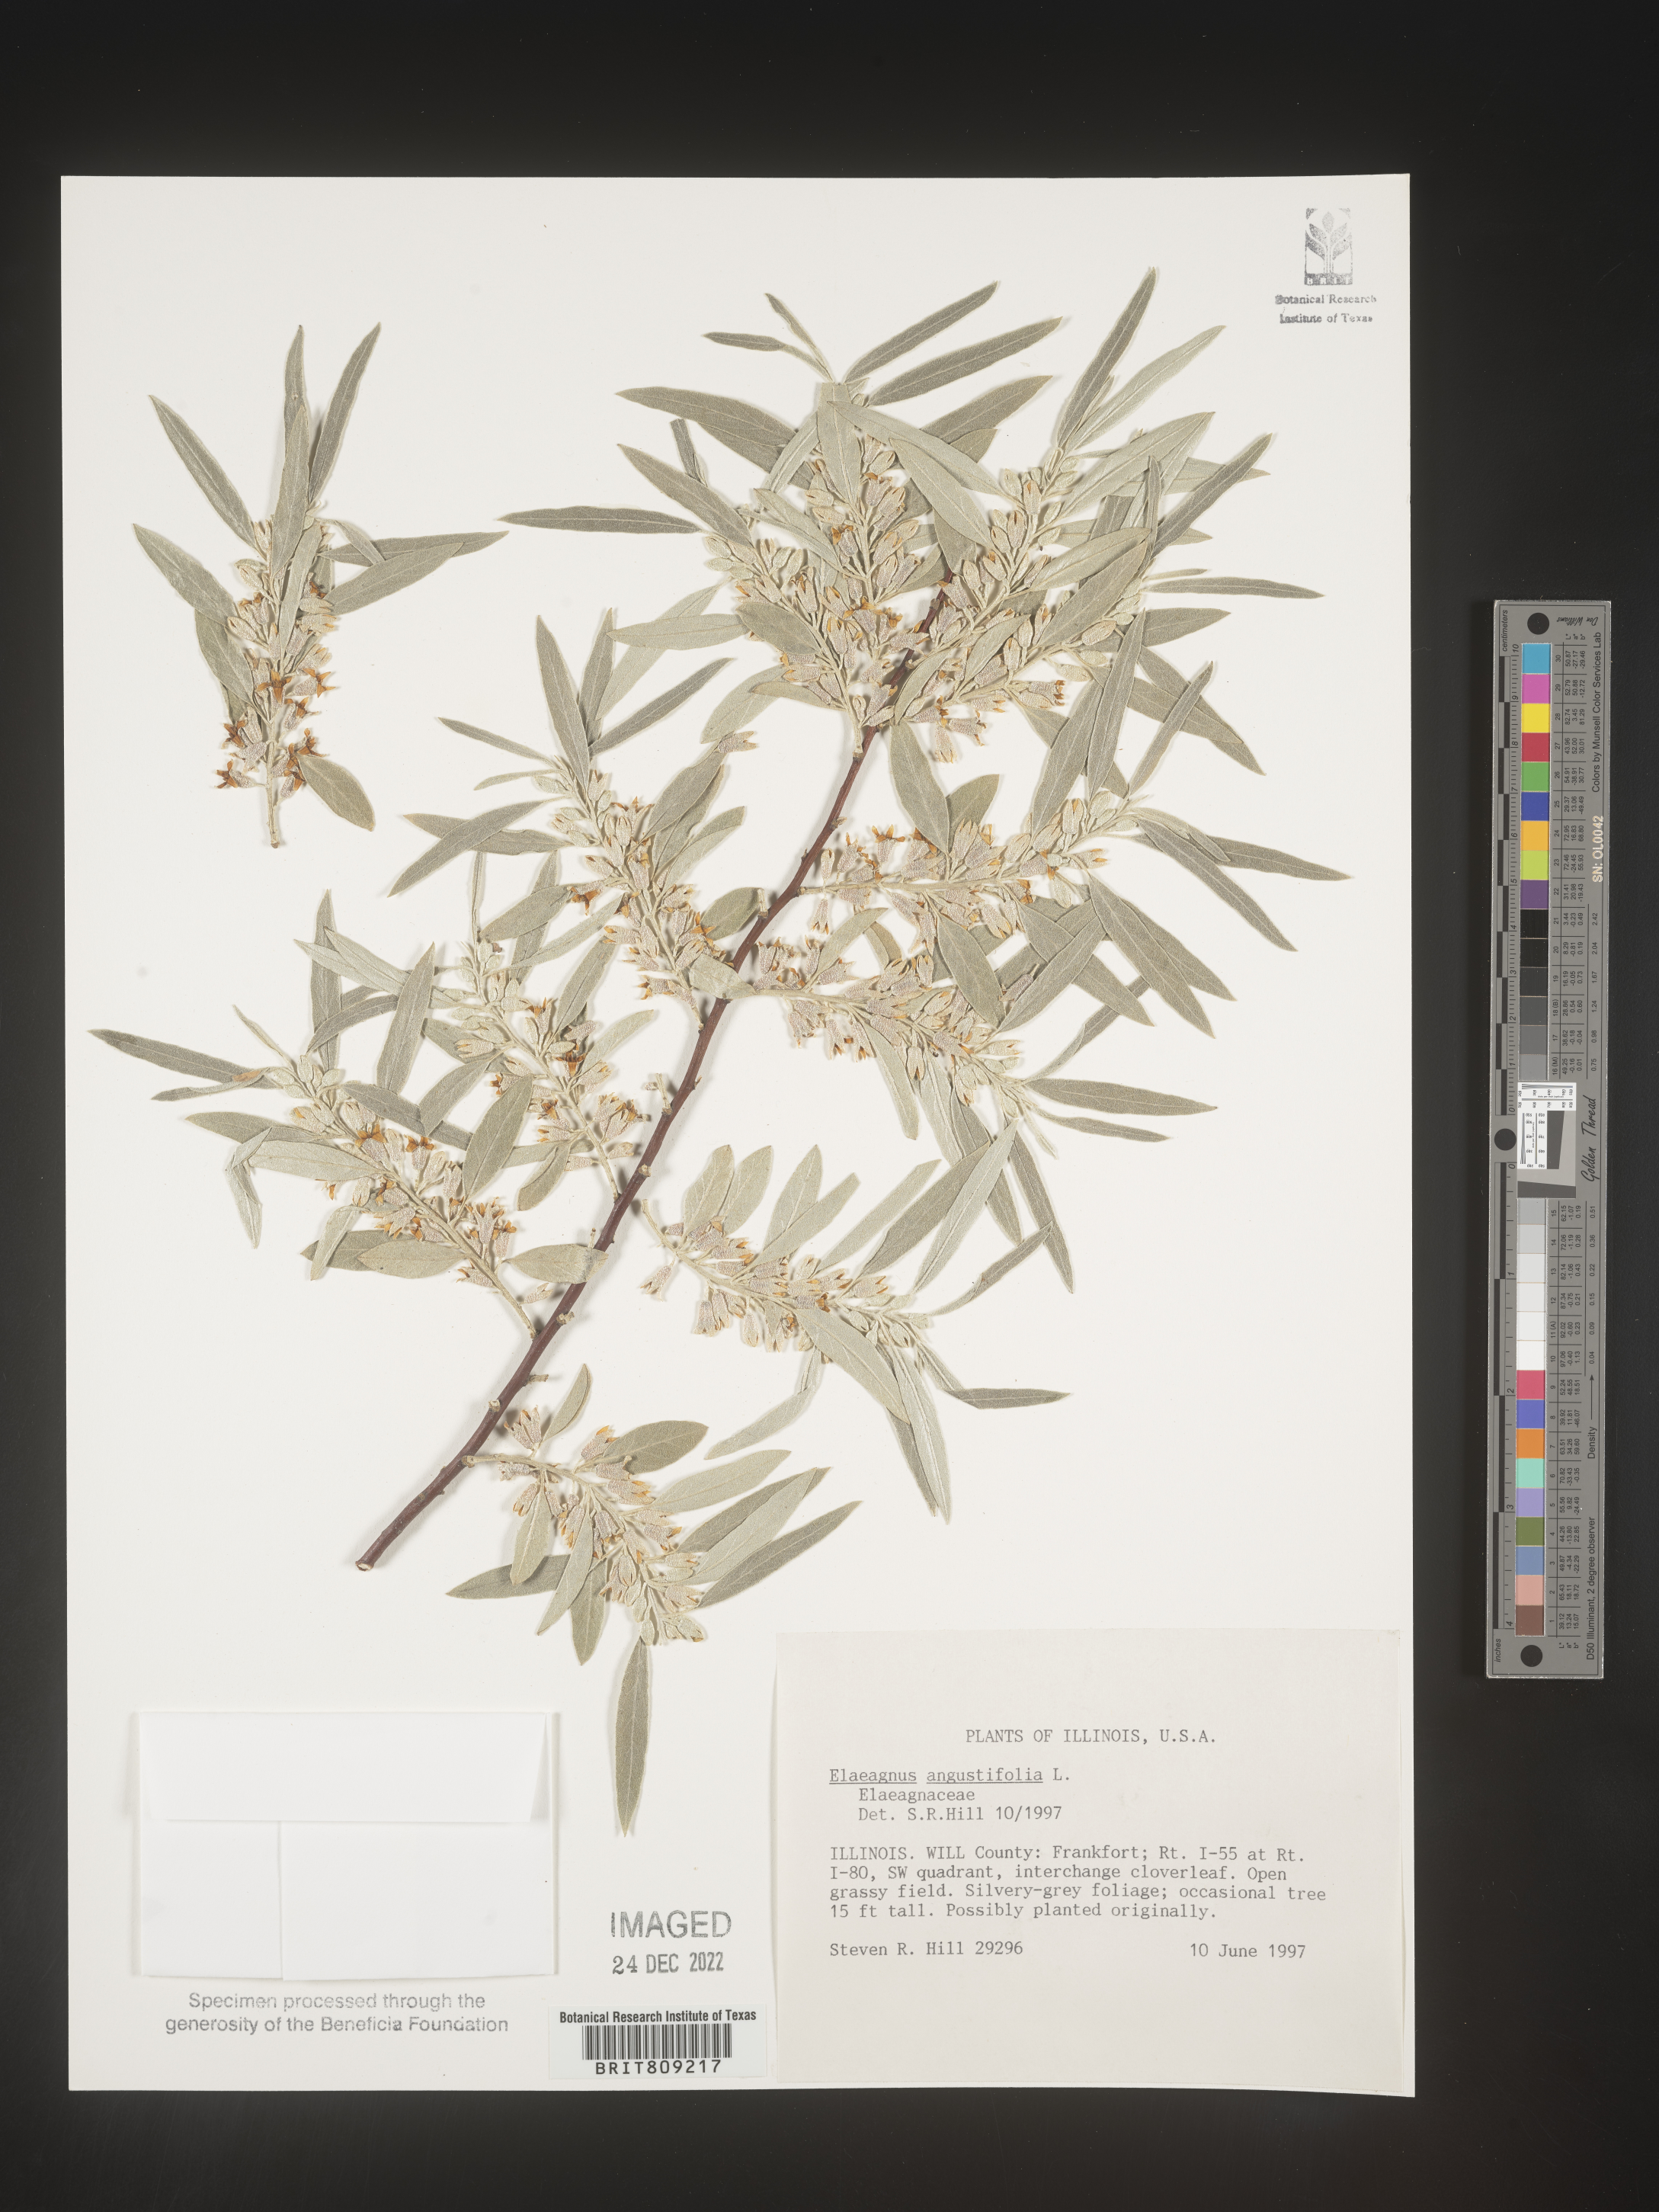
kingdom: Plantae
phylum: Tracheophyta
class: Magnoliopsida
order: Rosales
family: Elaeagnaceae
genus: Elaeagnus
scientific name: Elaeagnus angustifolia
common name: Russian olive
